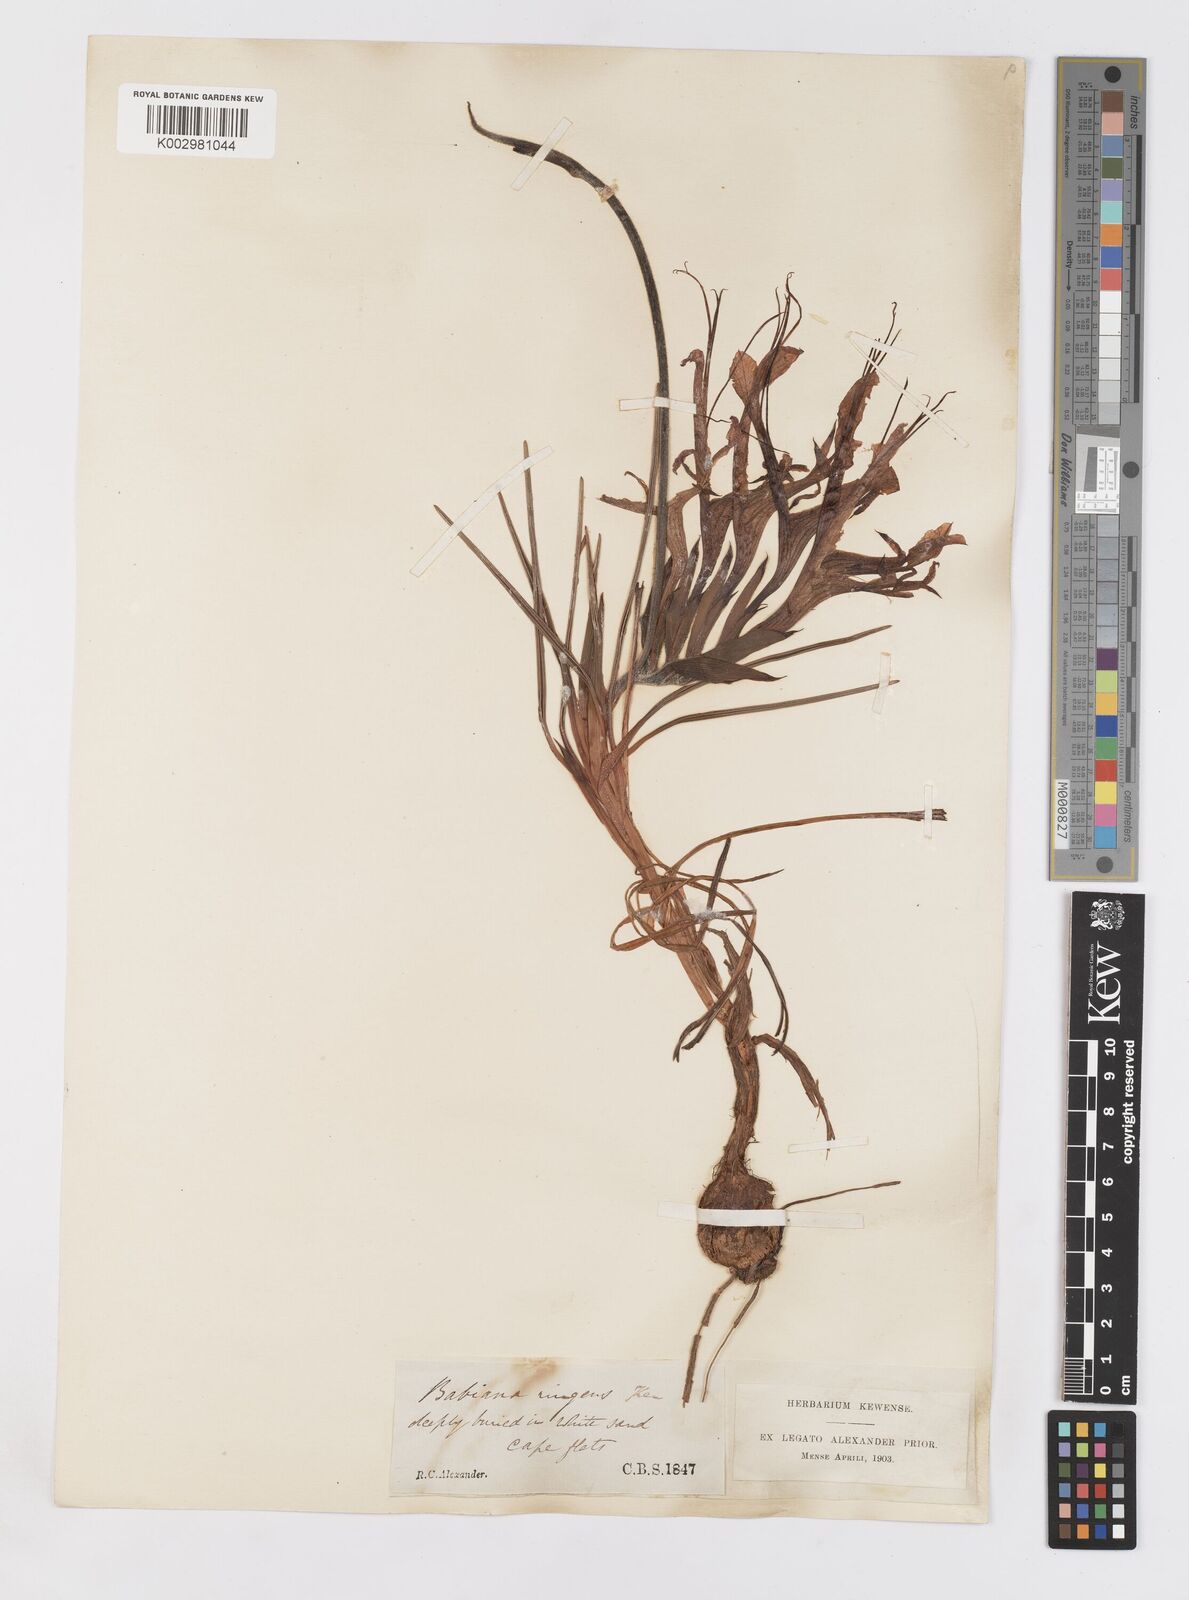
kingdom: Plantae
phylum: Tracheophyta
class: Liliopsida
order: Asparagales
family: Iridaceae
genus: Babiana
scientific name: Babiana ringens
